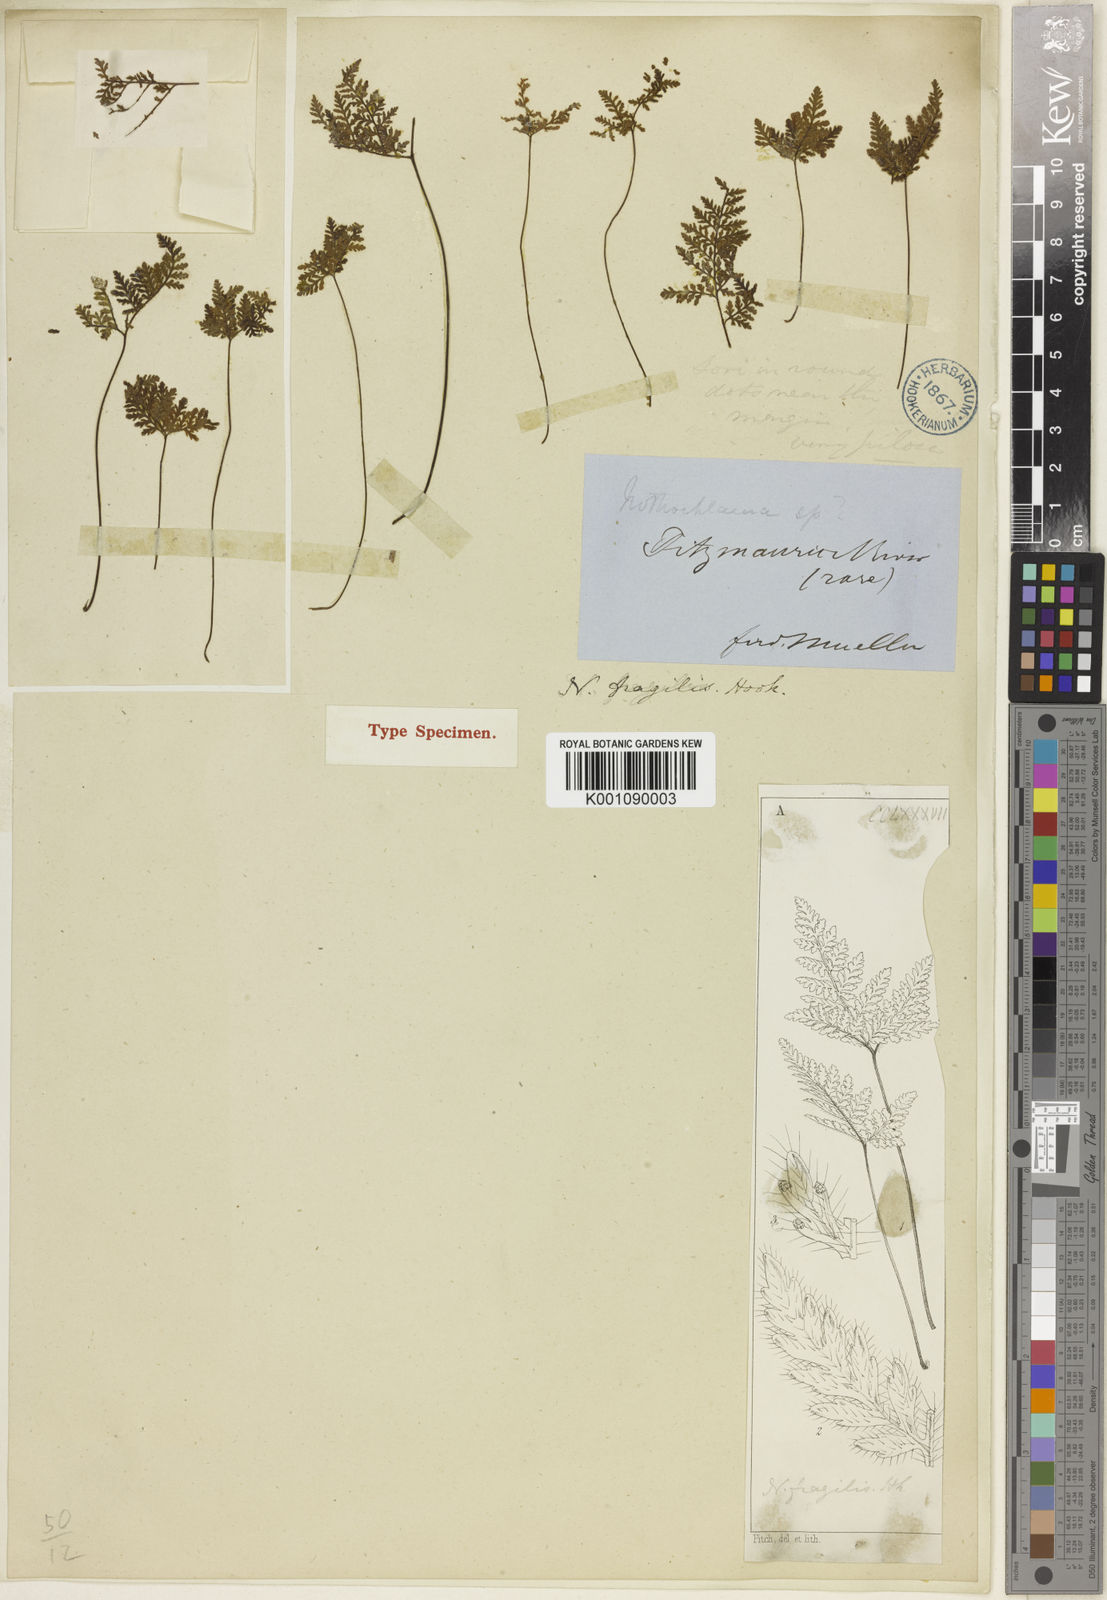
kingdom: Plantae
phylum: Tracheophyta
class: Polypodiopsida
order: Polypodiales
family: Pteridaceae
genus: Cheilanthes
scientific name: Cheilanthes fragillima
